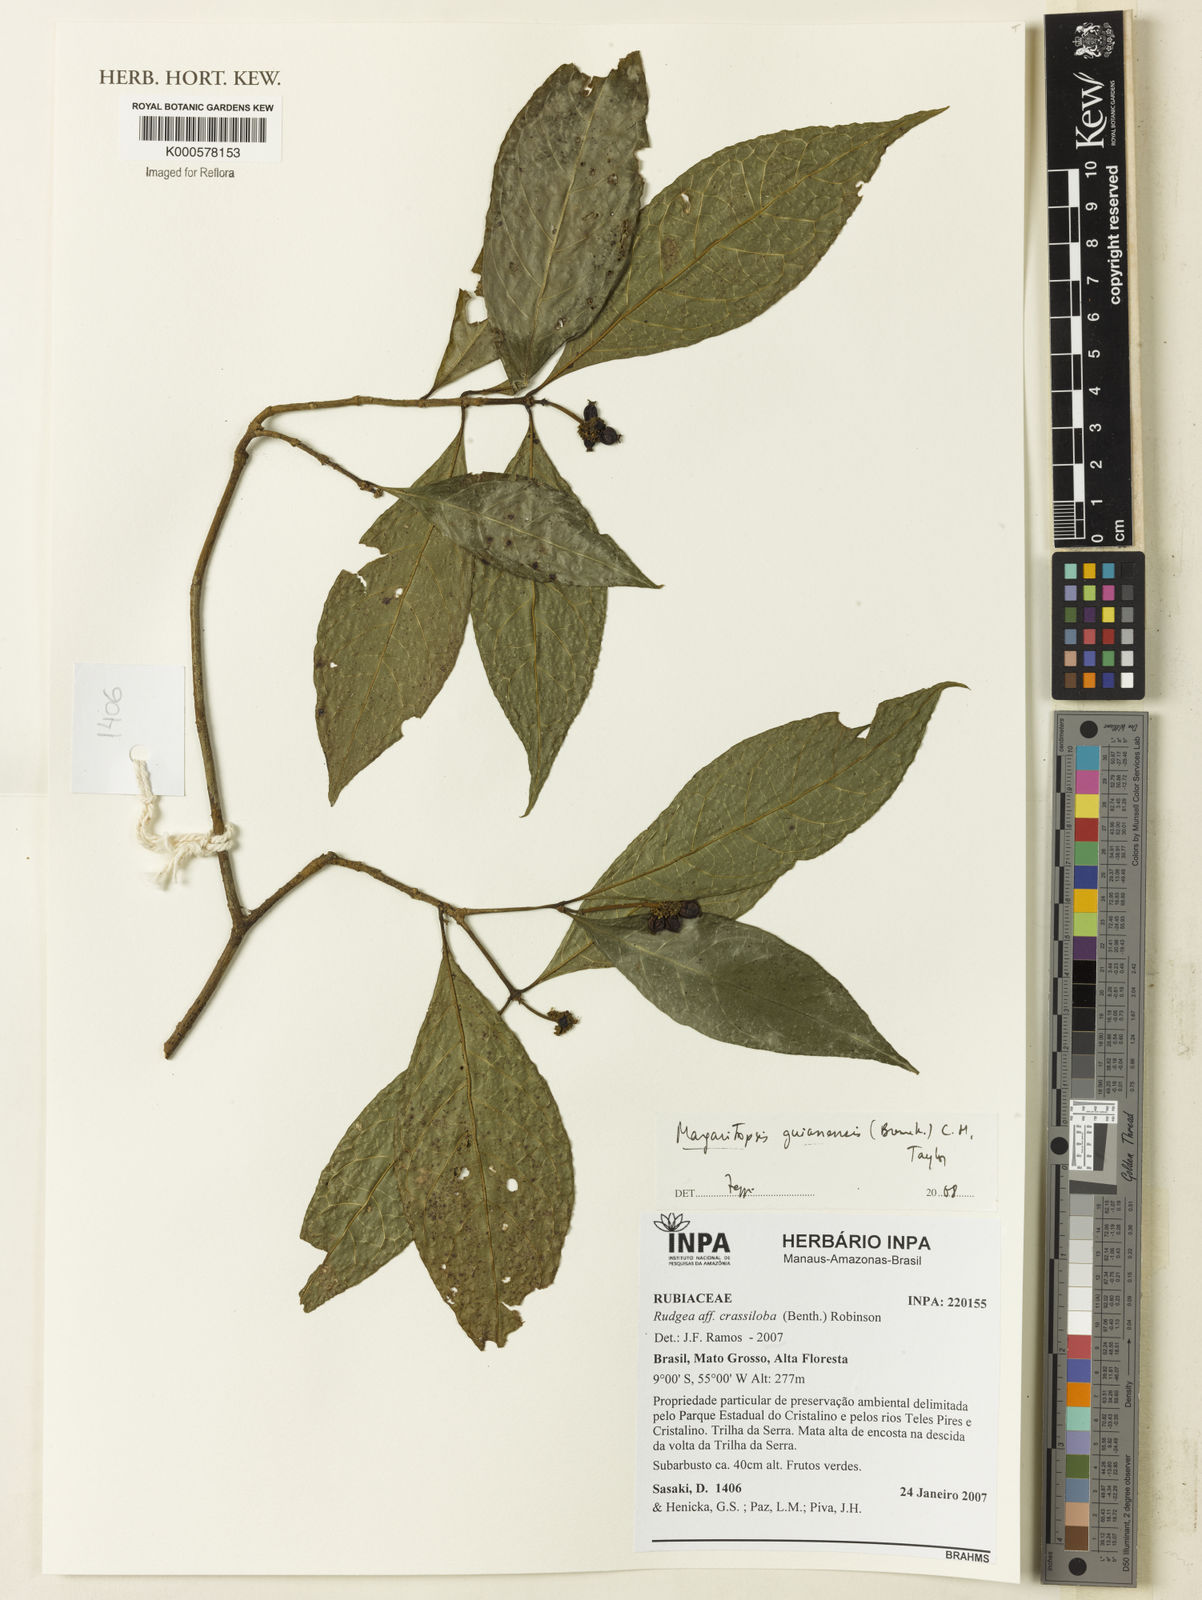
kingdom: Plantae
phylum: Tracheophyta
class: Magnoliopsida
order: Gentianales
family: Rubiaceae
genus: Eumachia
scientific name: Eumachia guianensis
